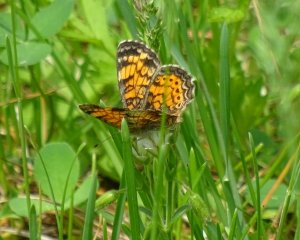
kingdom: Animalia
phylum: Arthropoda
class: Insecta
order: Lepidoptera
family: Nymphalidae
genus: Phyciodes
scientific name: Phyciodes tharos
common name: Northern Crescent
